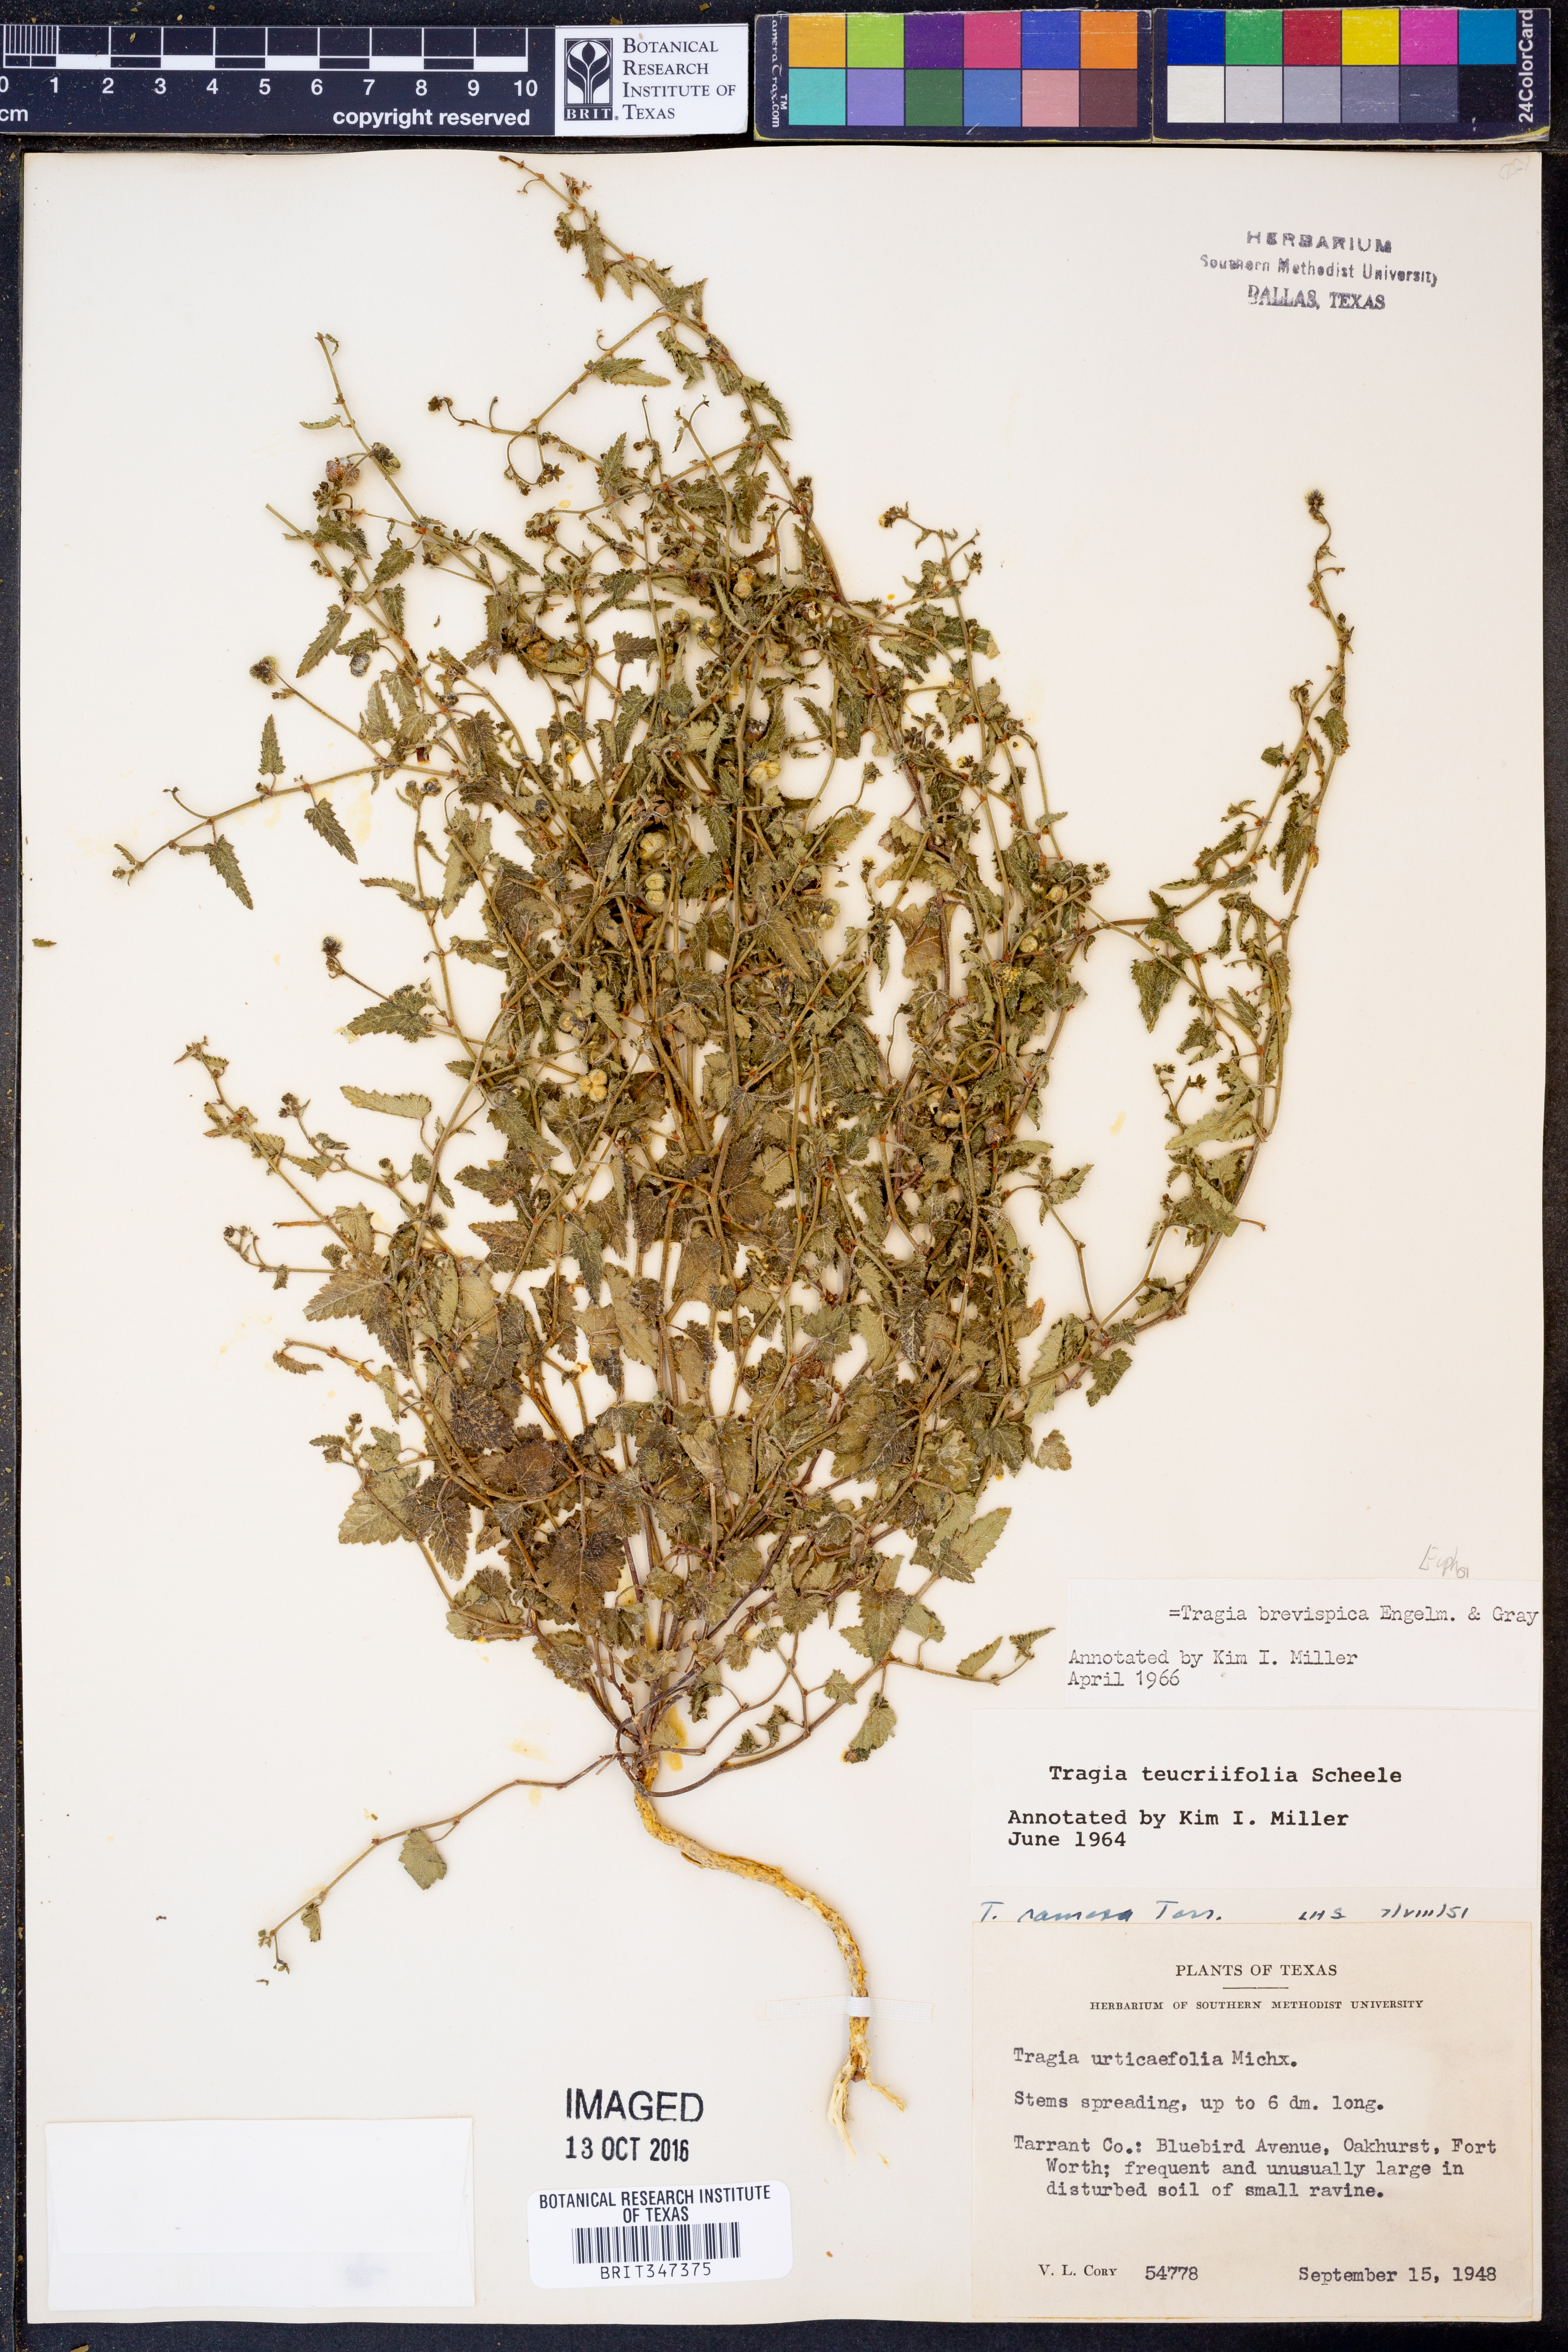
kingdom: Plantae
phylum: Tracheophyta
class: Magnoliopsida
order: Malpighiales
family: Euphorbiaceae
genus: Tragia
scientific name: Tragia brevispica
